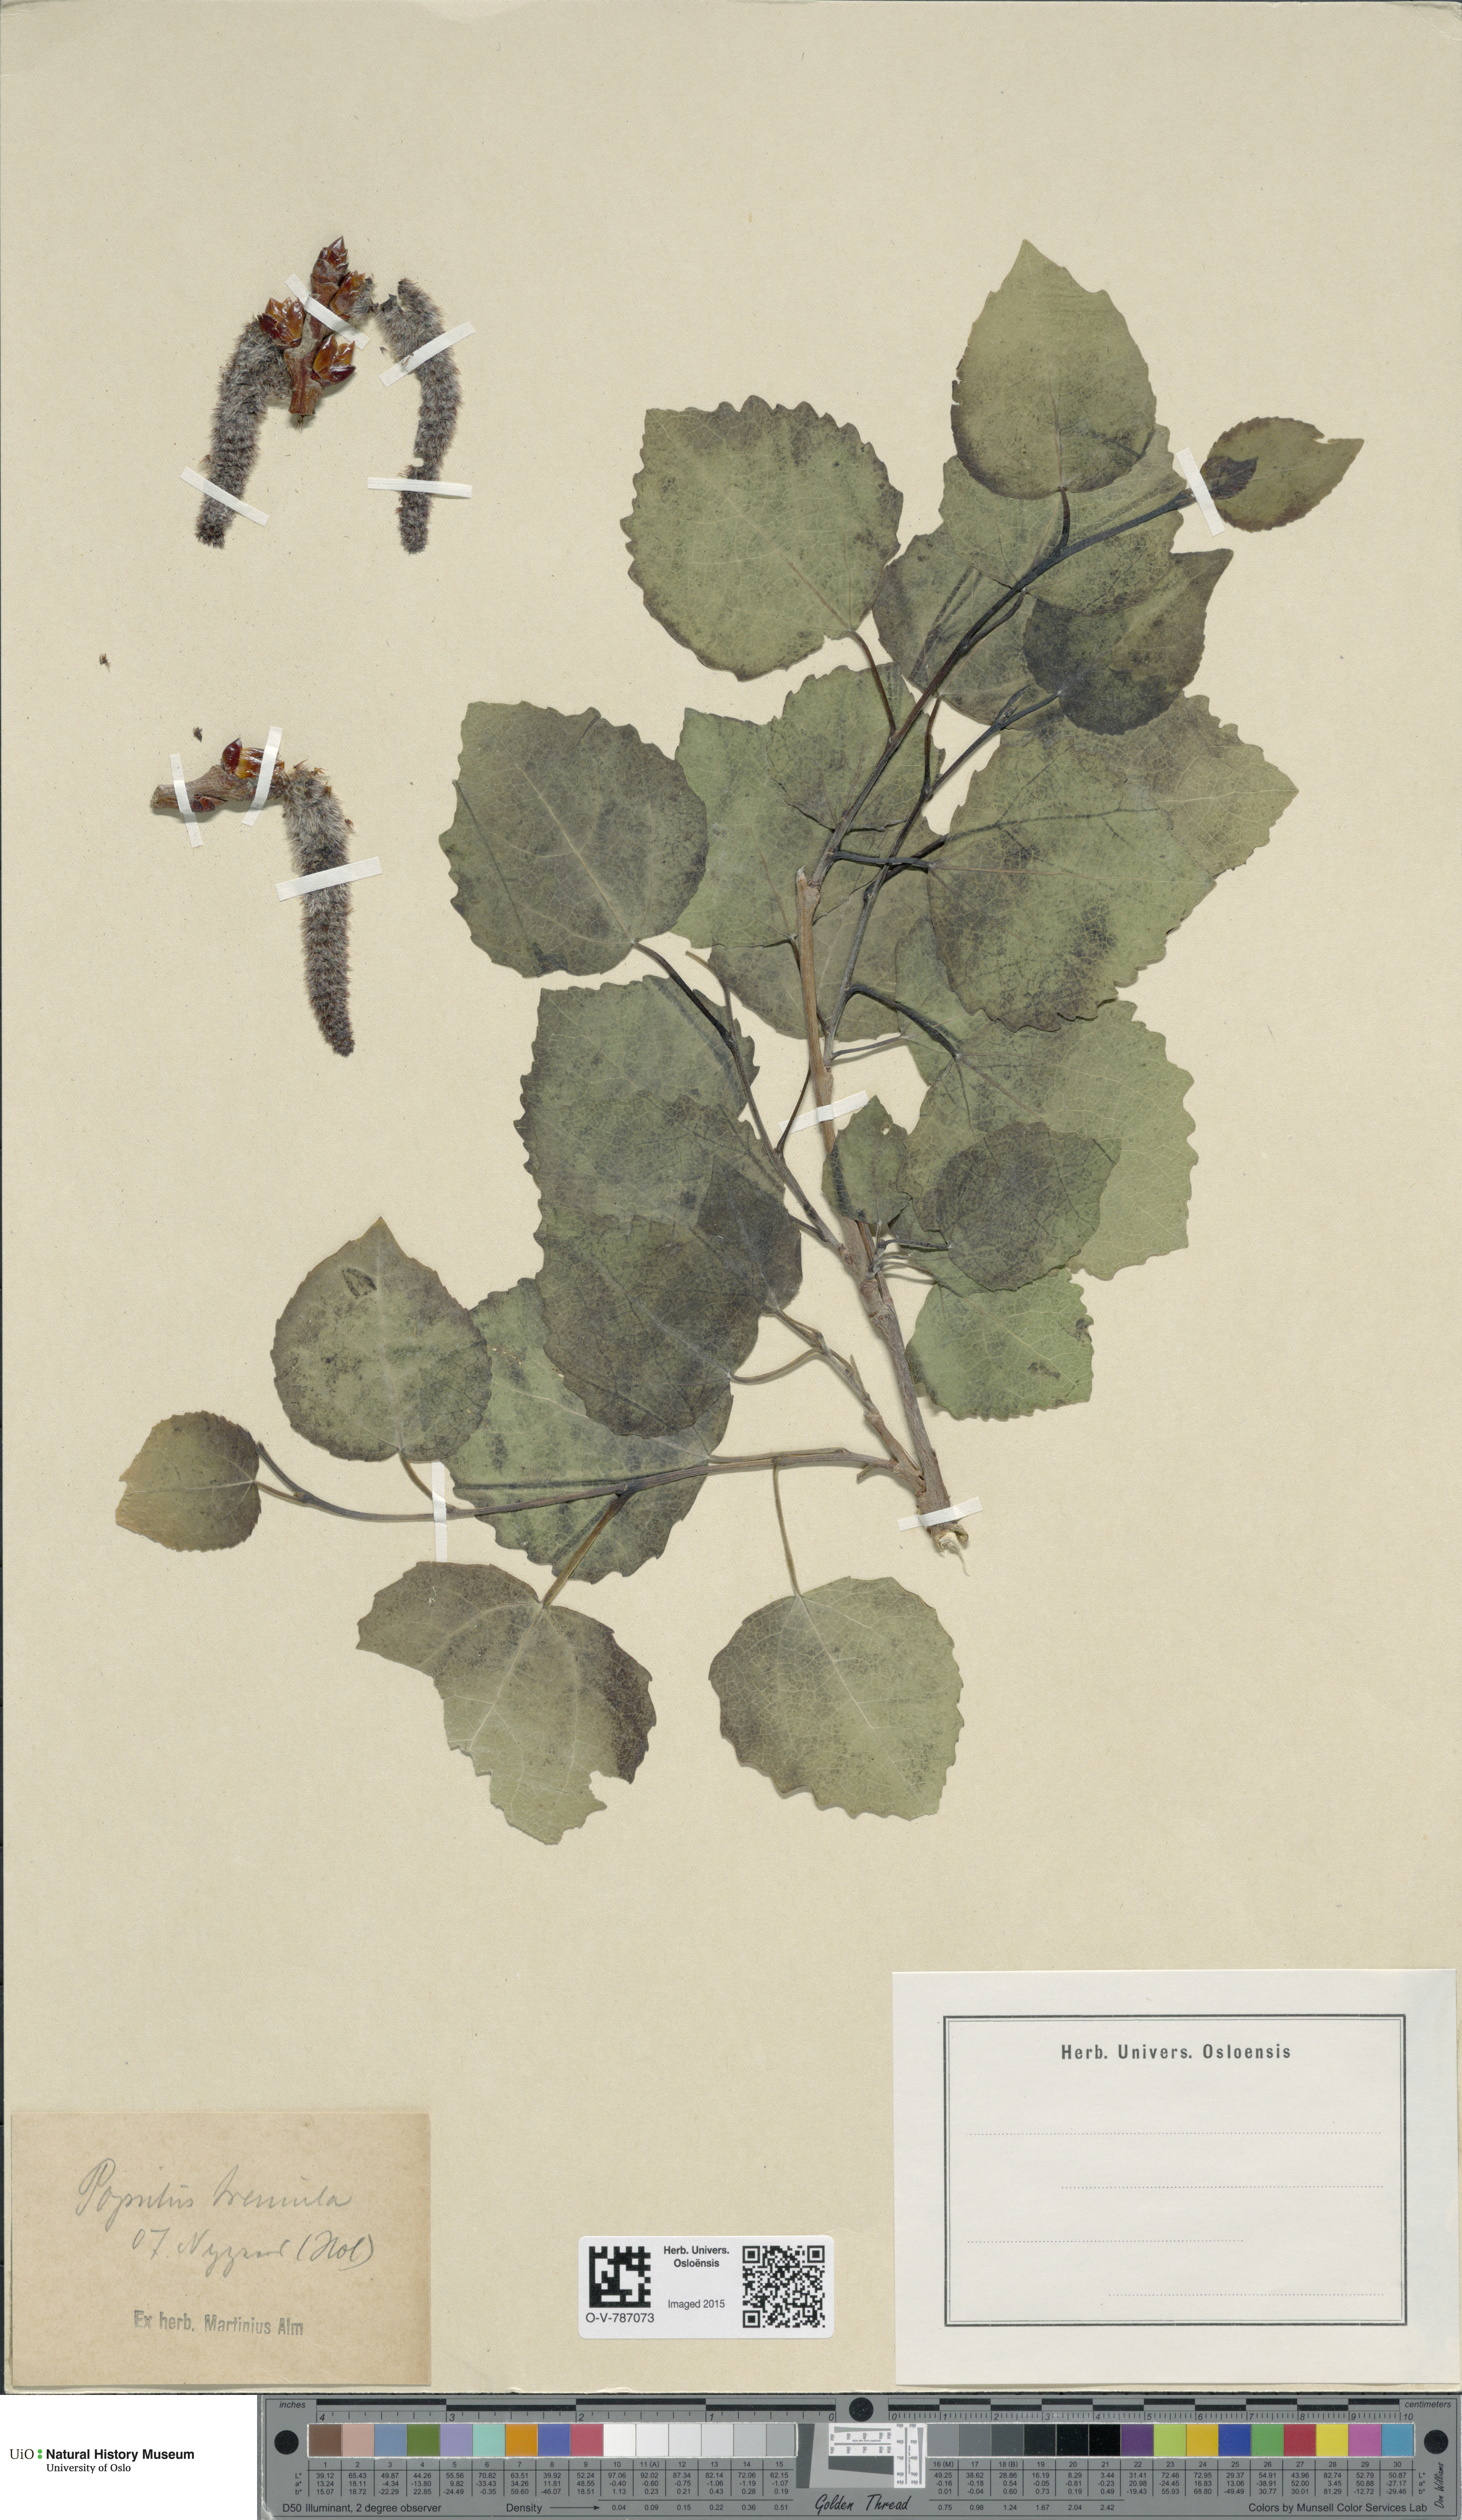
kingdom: Plantae
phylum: Tracheophyta
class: Magnoliopsida
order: Malpighiales
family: Salicaceae
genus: Populus
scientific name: Populus tremula
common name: European aspen
